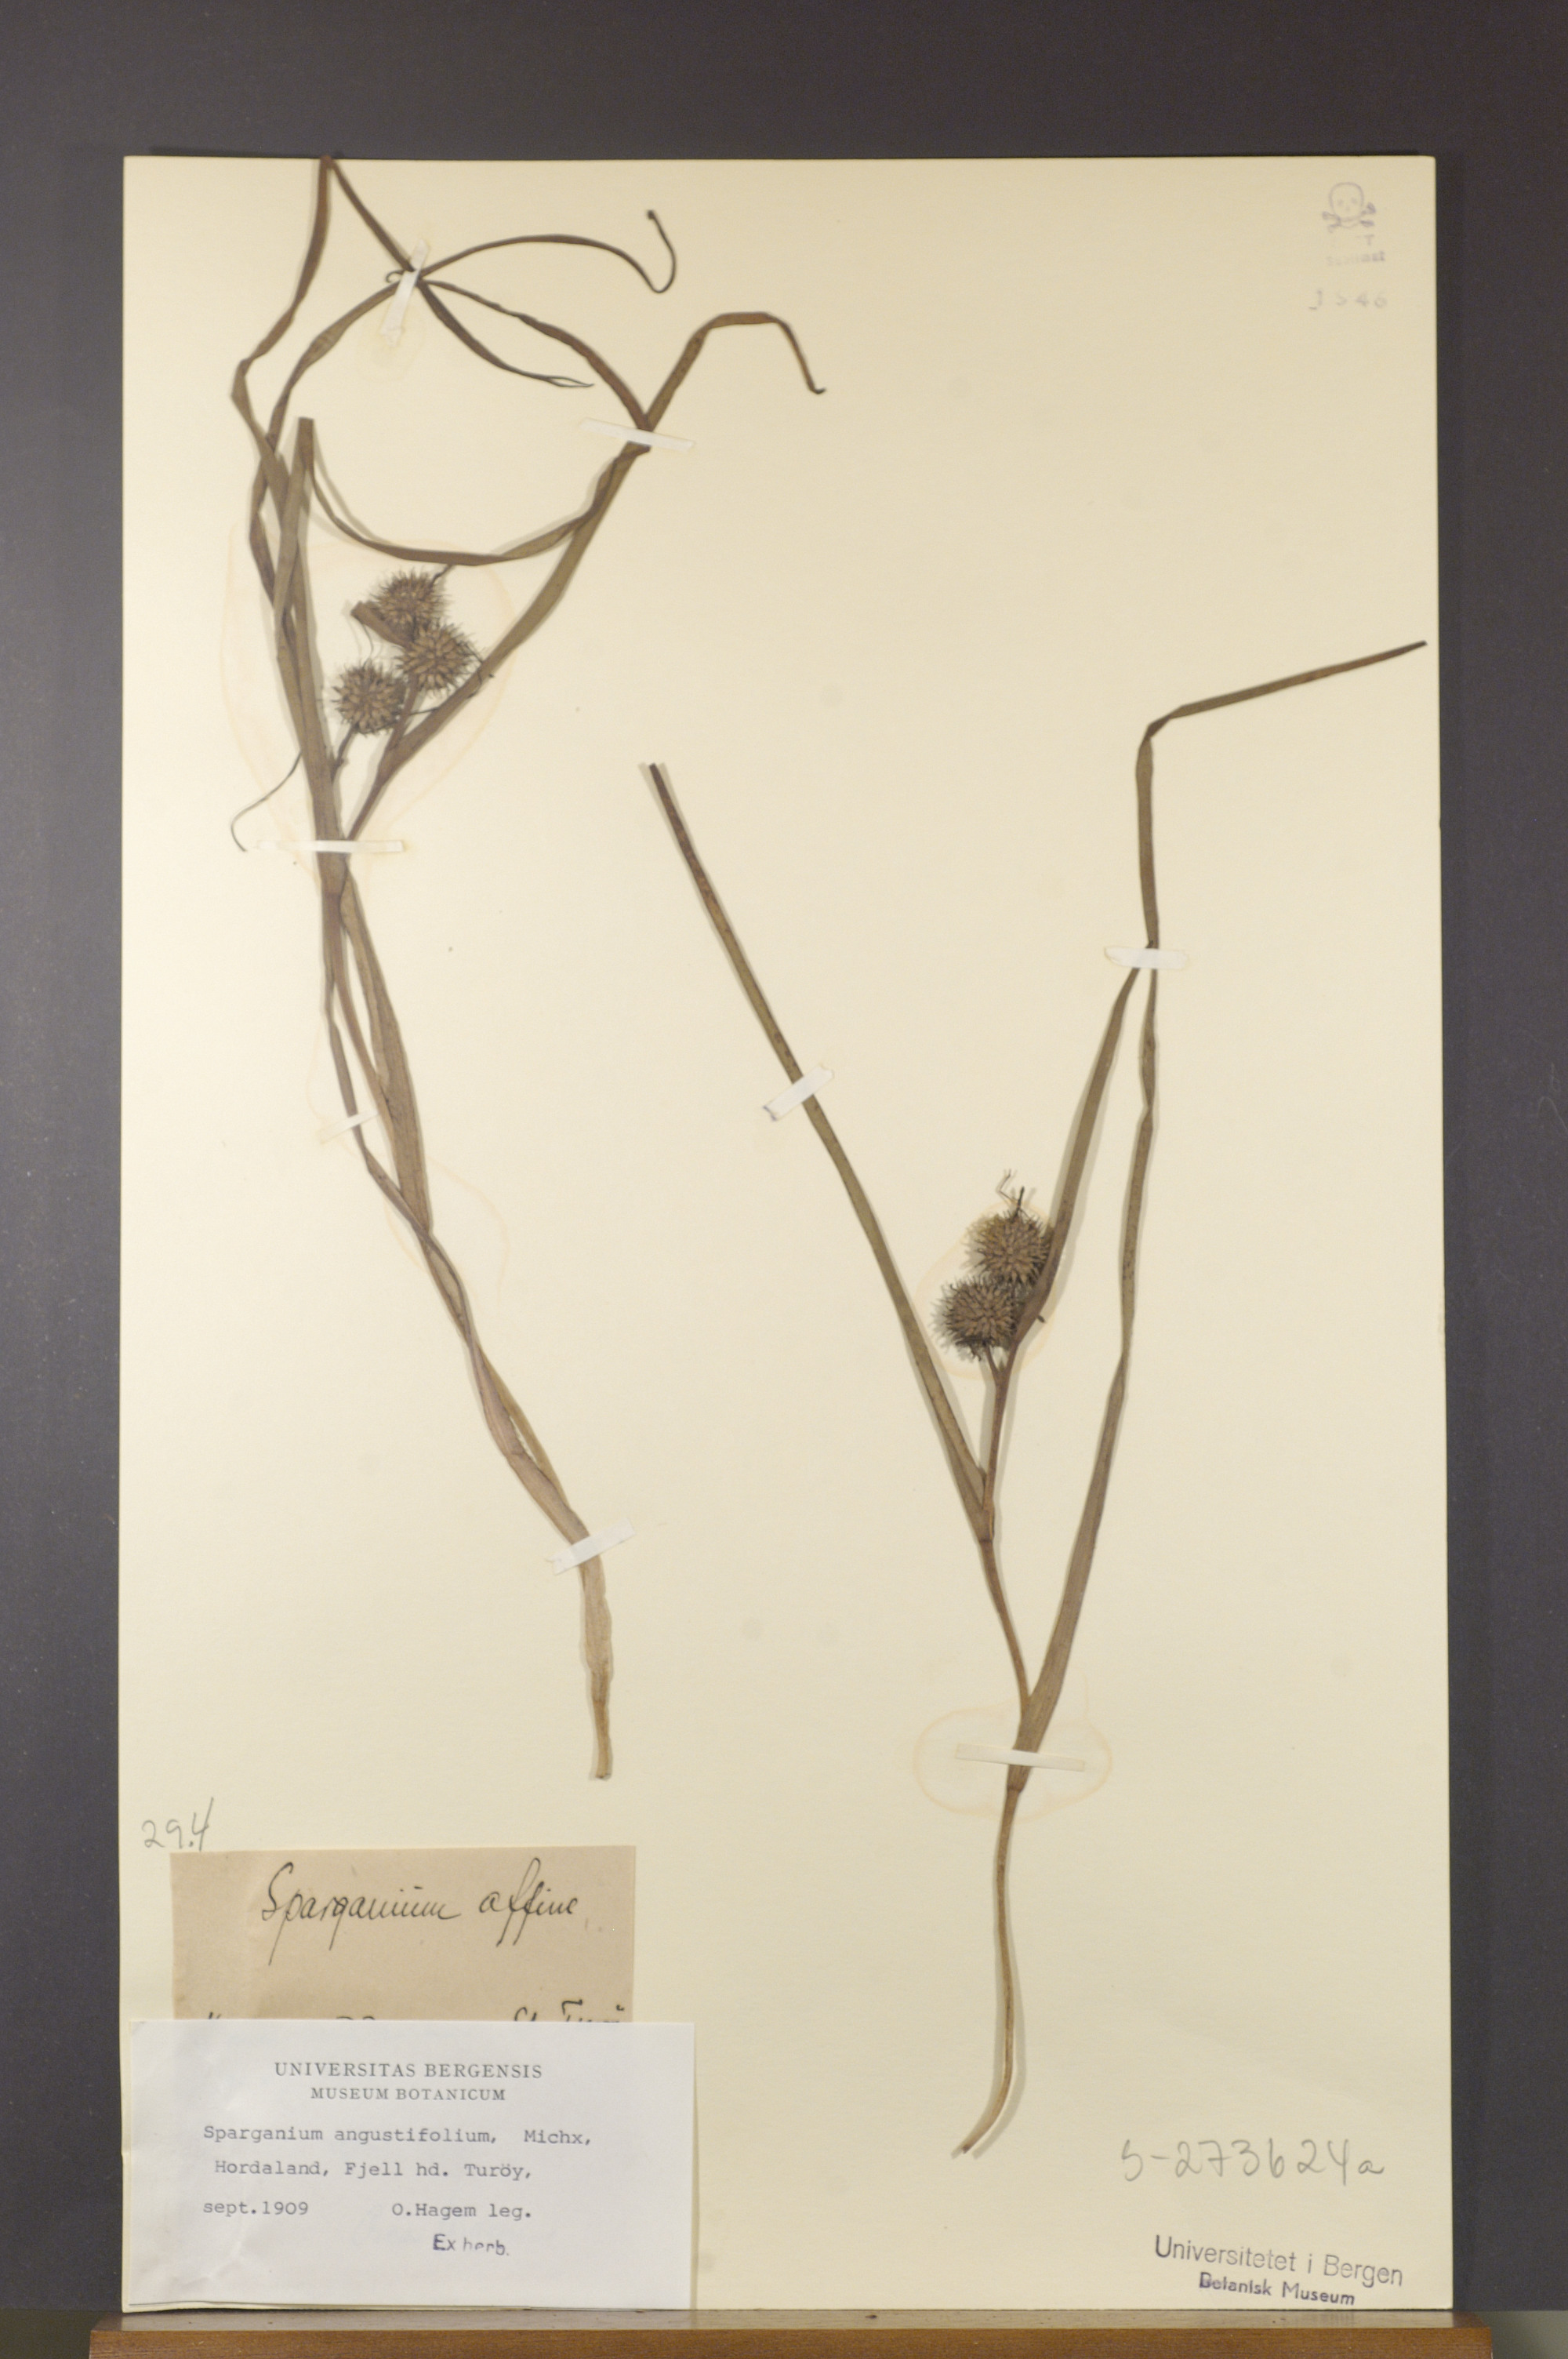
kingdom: Plantae
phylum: Tracheophyta
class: Liliopsida
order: Poales
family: Typhaceae
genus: Sparganium
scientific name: Sparganium angustifolium
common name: Floating bur-reed
